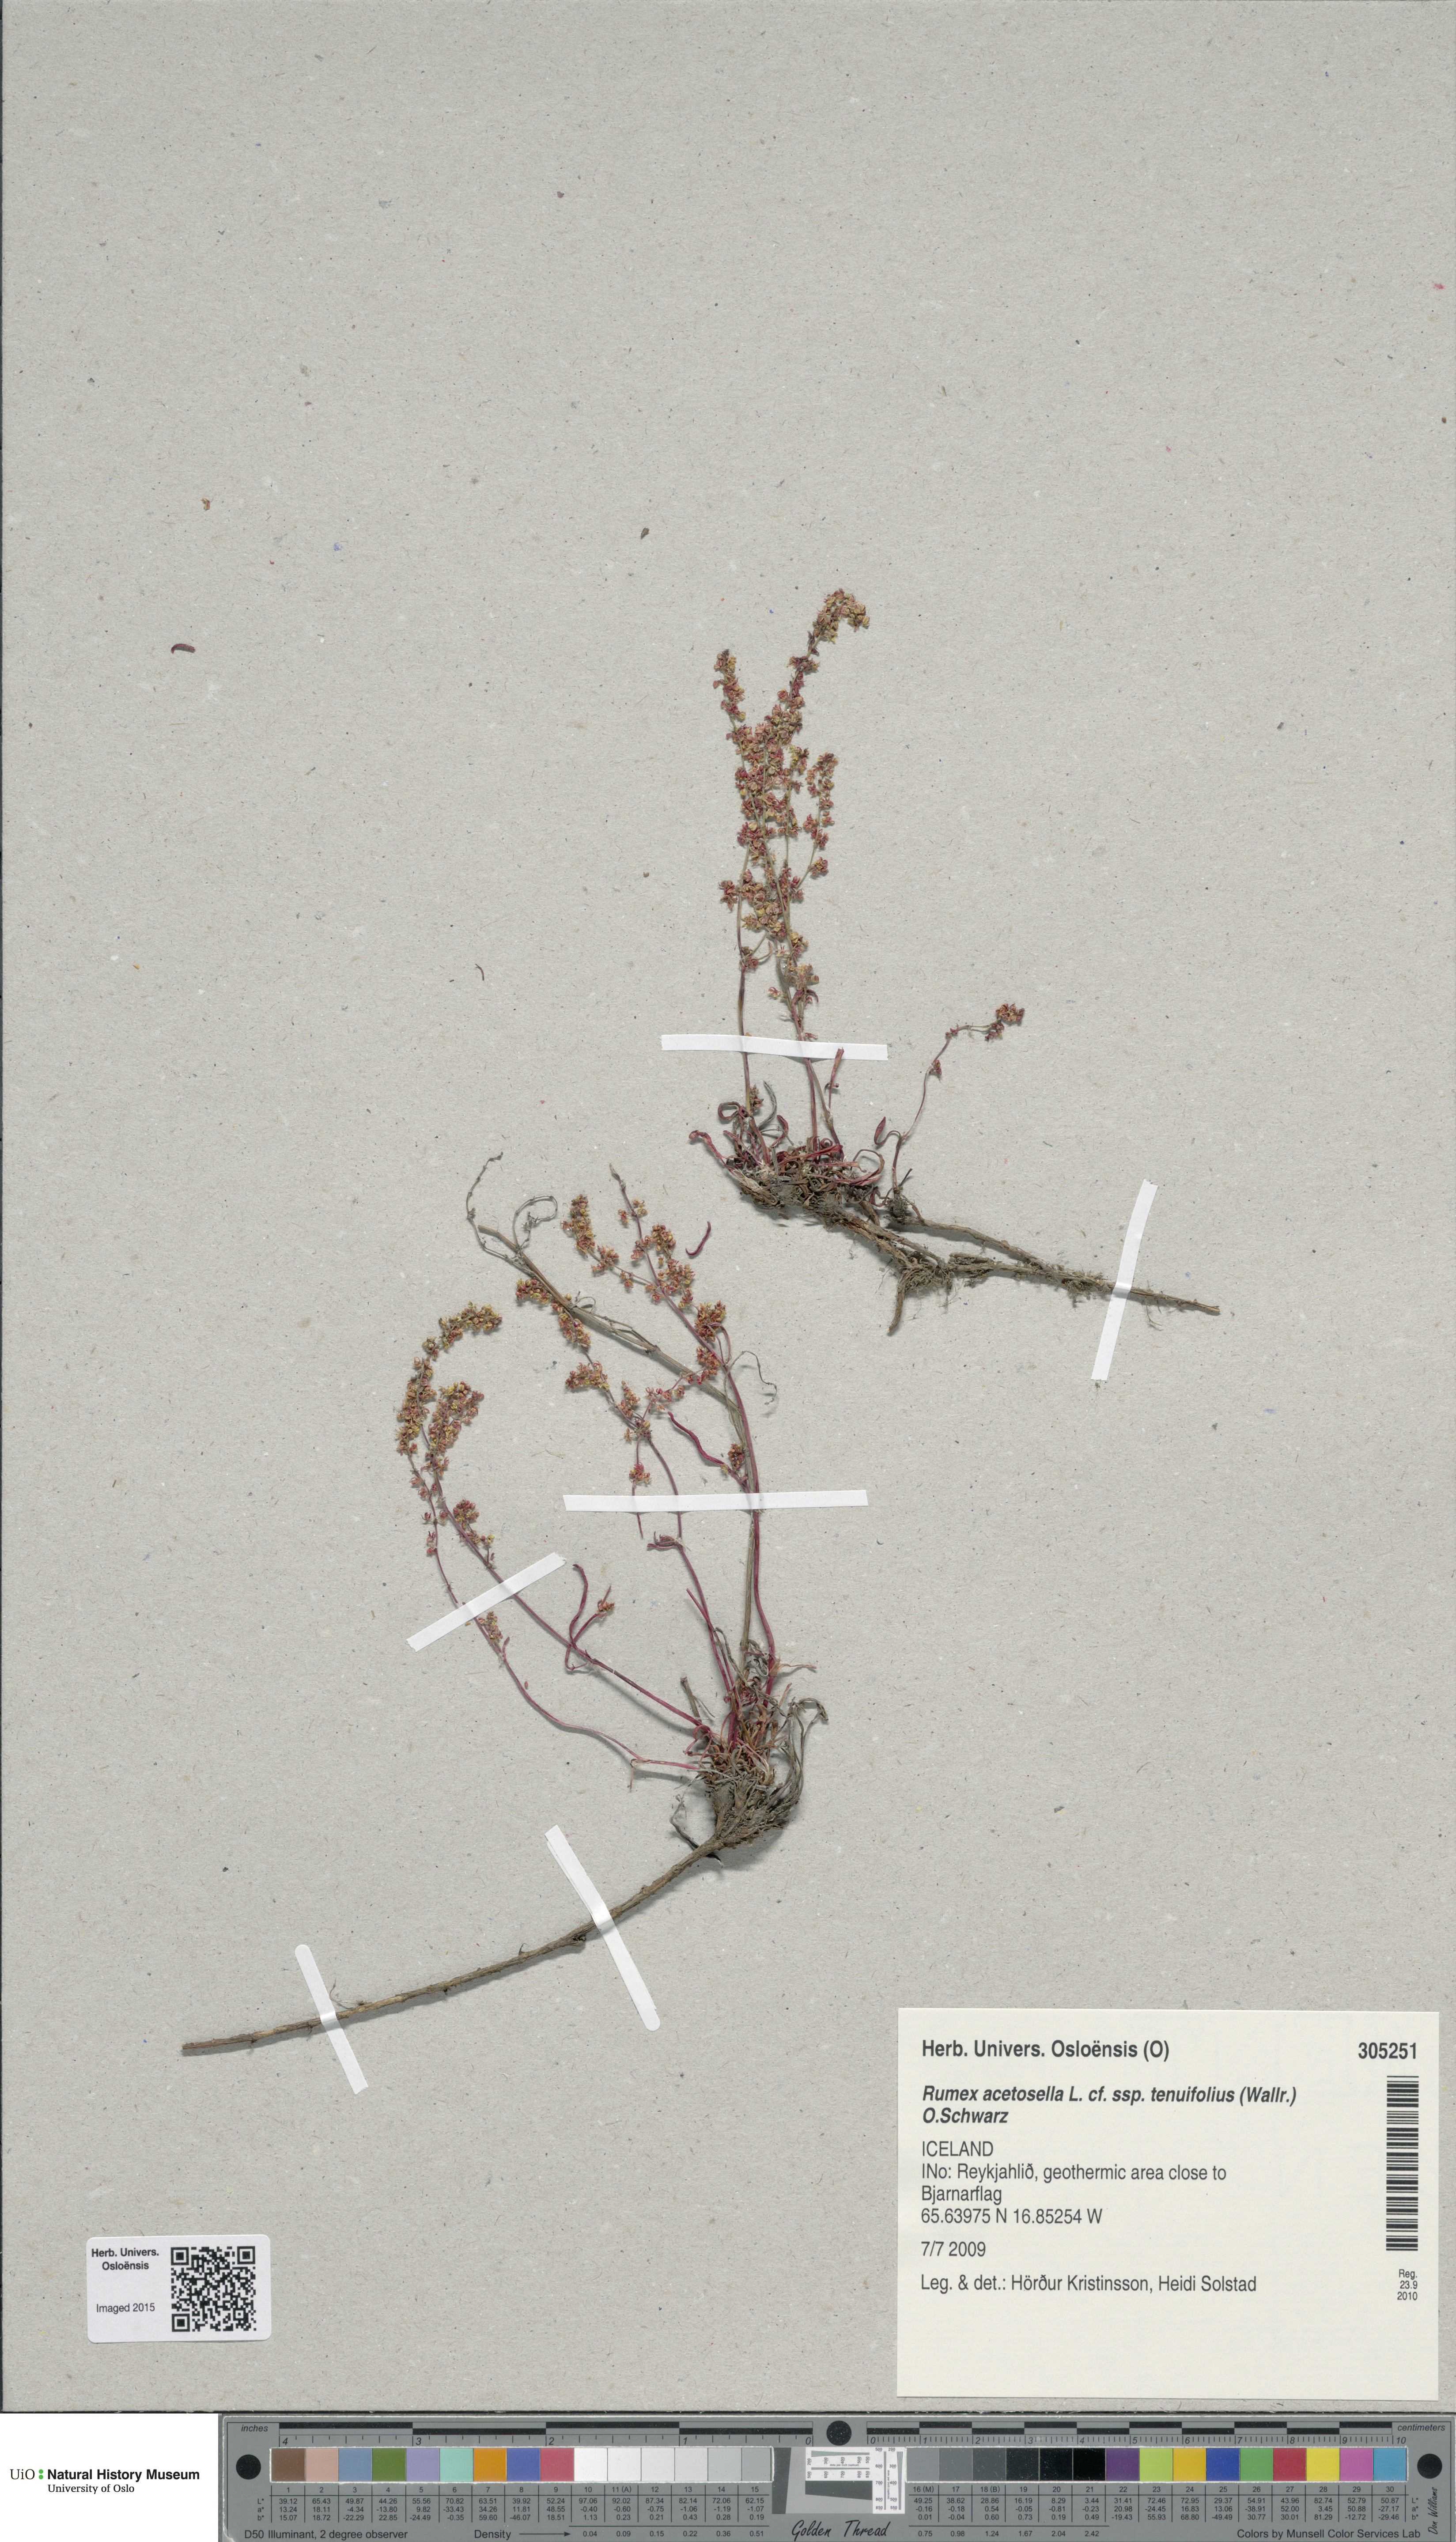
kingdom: Plantae
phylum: Tracheophyta
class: Magnoliopsida
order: Caryophyllales
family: Polygonaceae
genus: Rumex
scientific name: Rumex acetosella
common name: Common sheep sorrel
